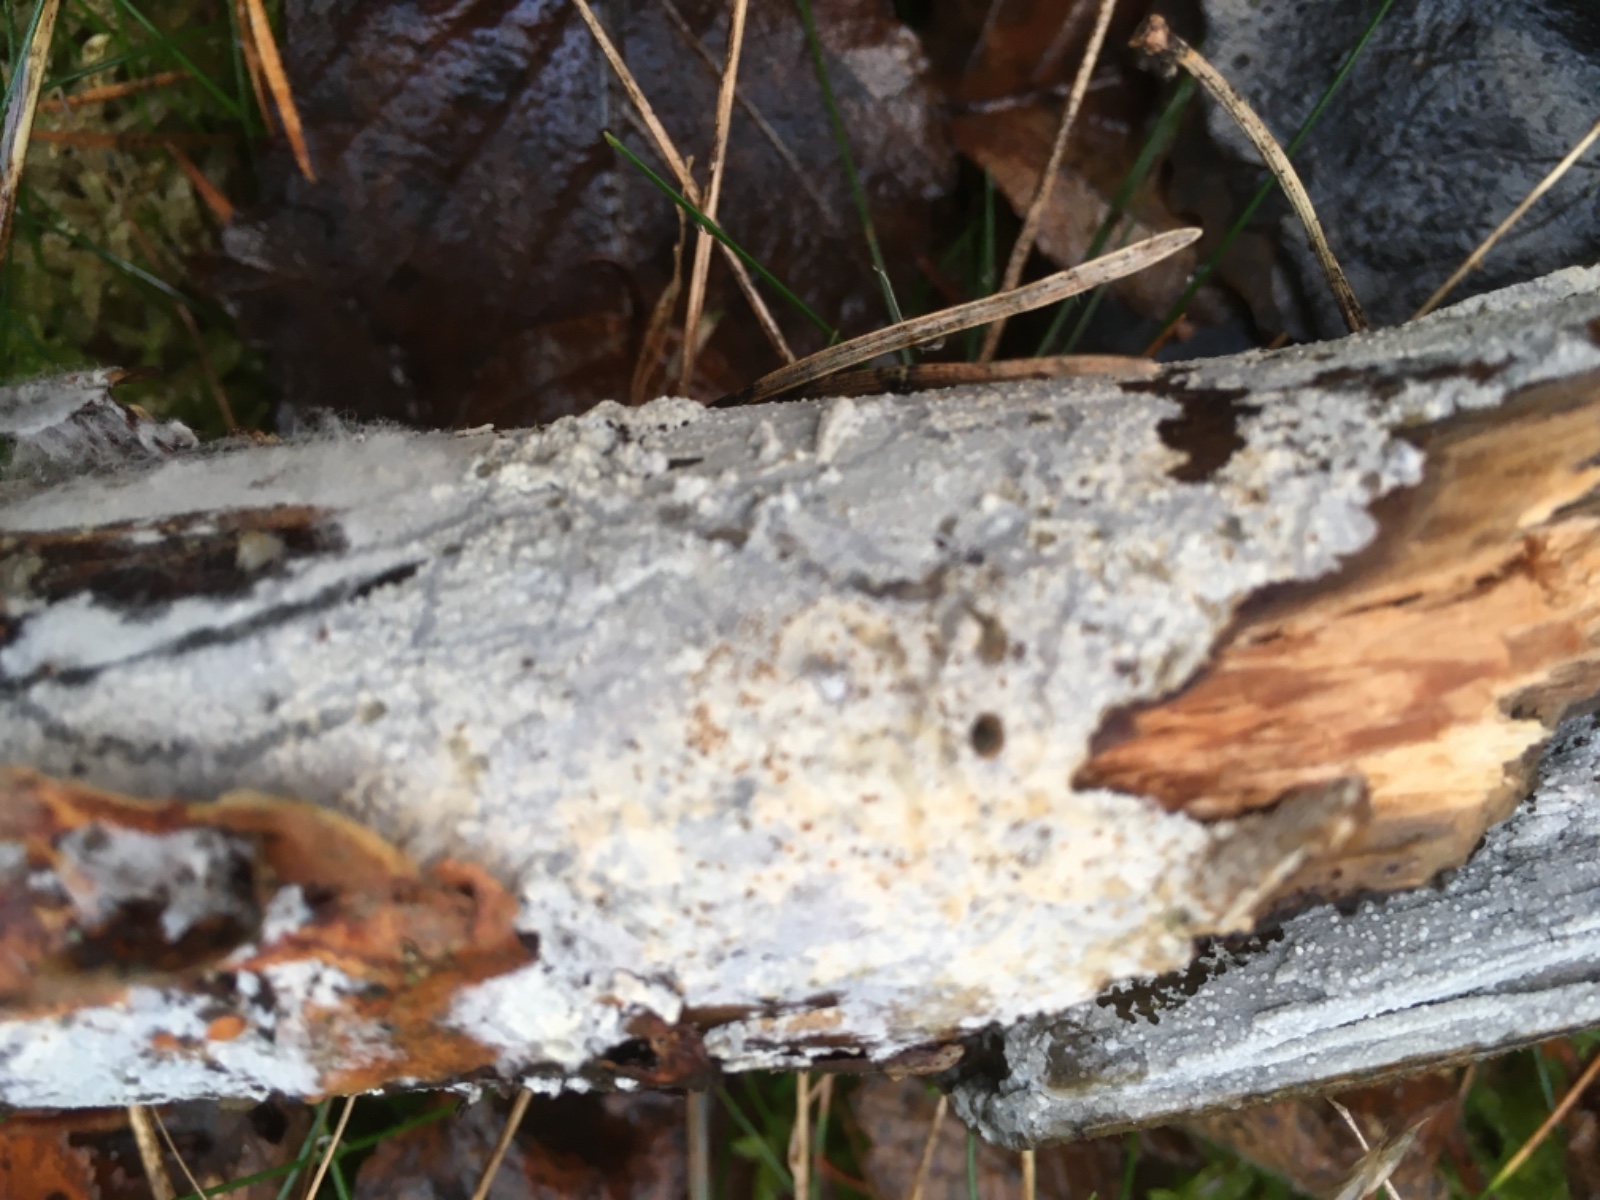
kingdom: Fungi
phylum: Basidiomycota
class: Agaricomycetes
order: Corticiales
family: Corticiaceae
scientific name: Corticiaceae
